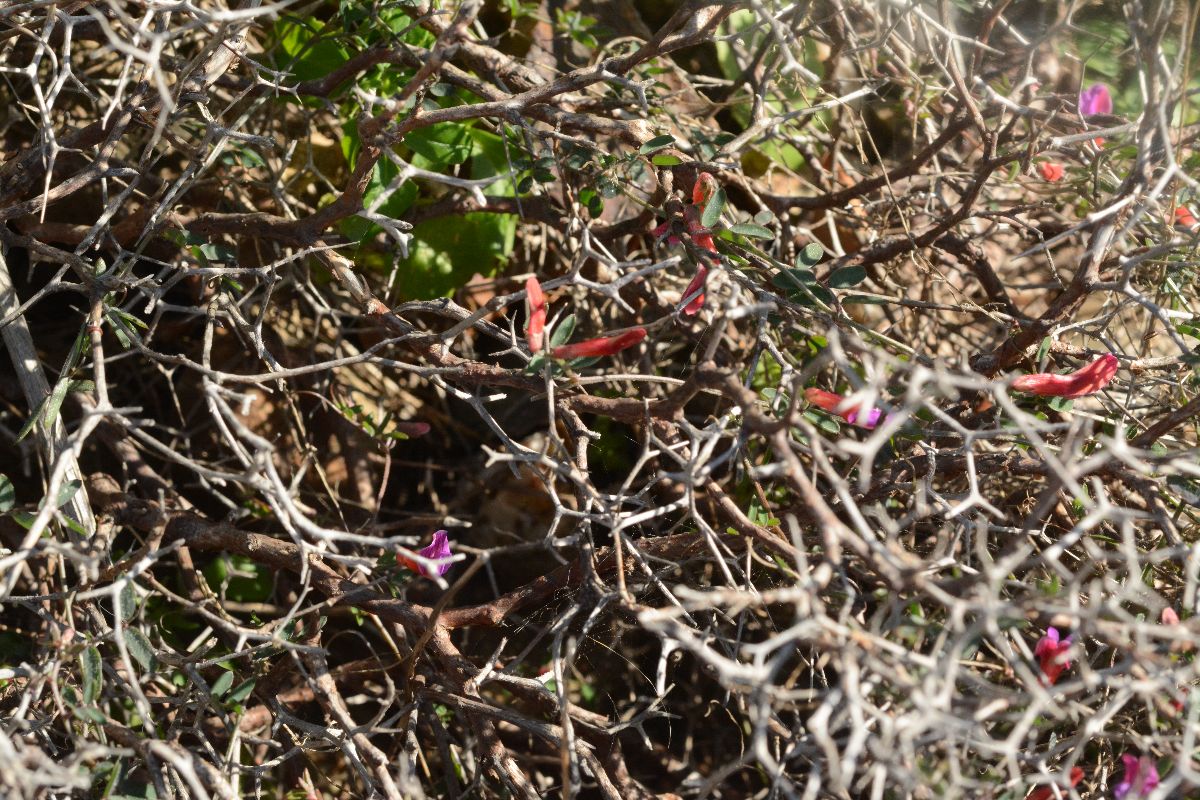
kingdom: Plantae
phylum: Tracheophyta
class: Magnoliopsida
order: Fabales
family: Fabaceae
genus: Vicia
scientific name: Vicia cretica
